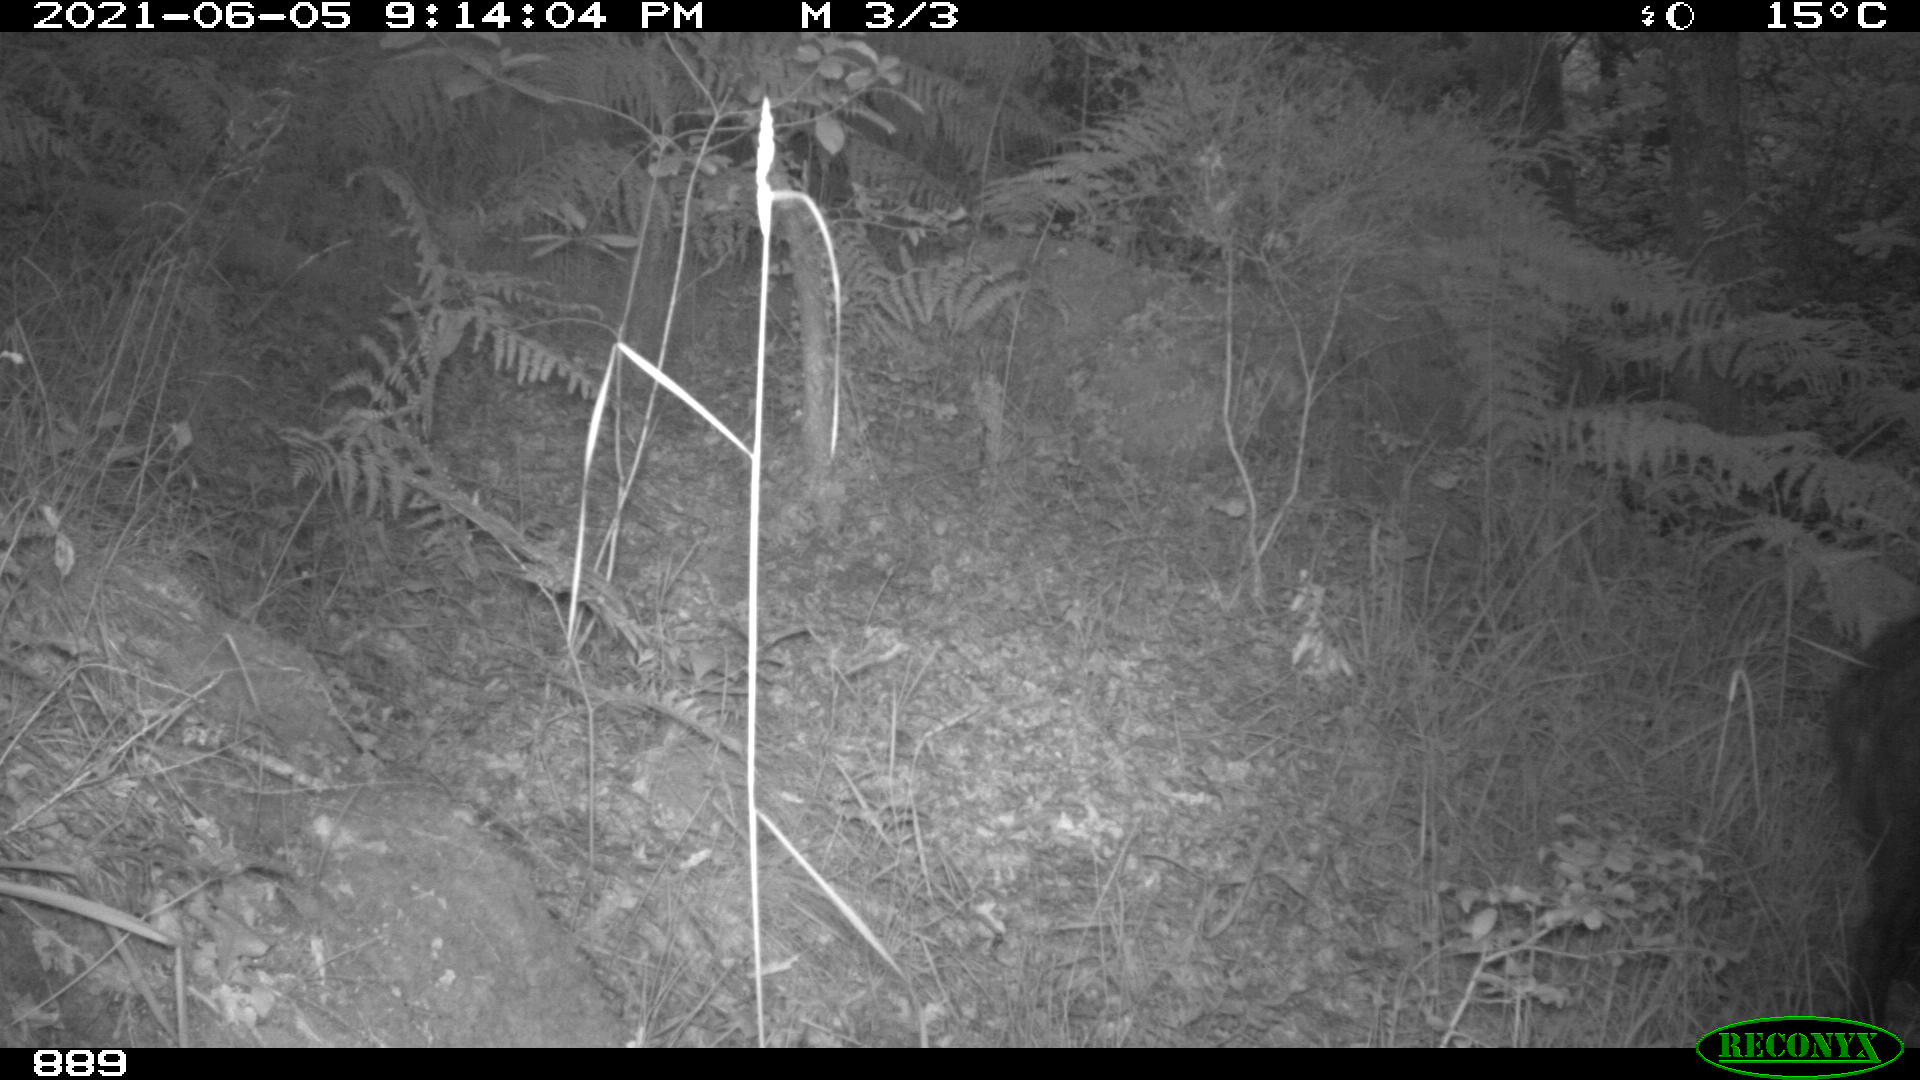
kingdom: Animalia
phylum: Chordata
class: Mammalia
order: Artiodactyla
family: Suidae
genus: Sus
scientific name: Sus scrofa
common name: Wild boar
